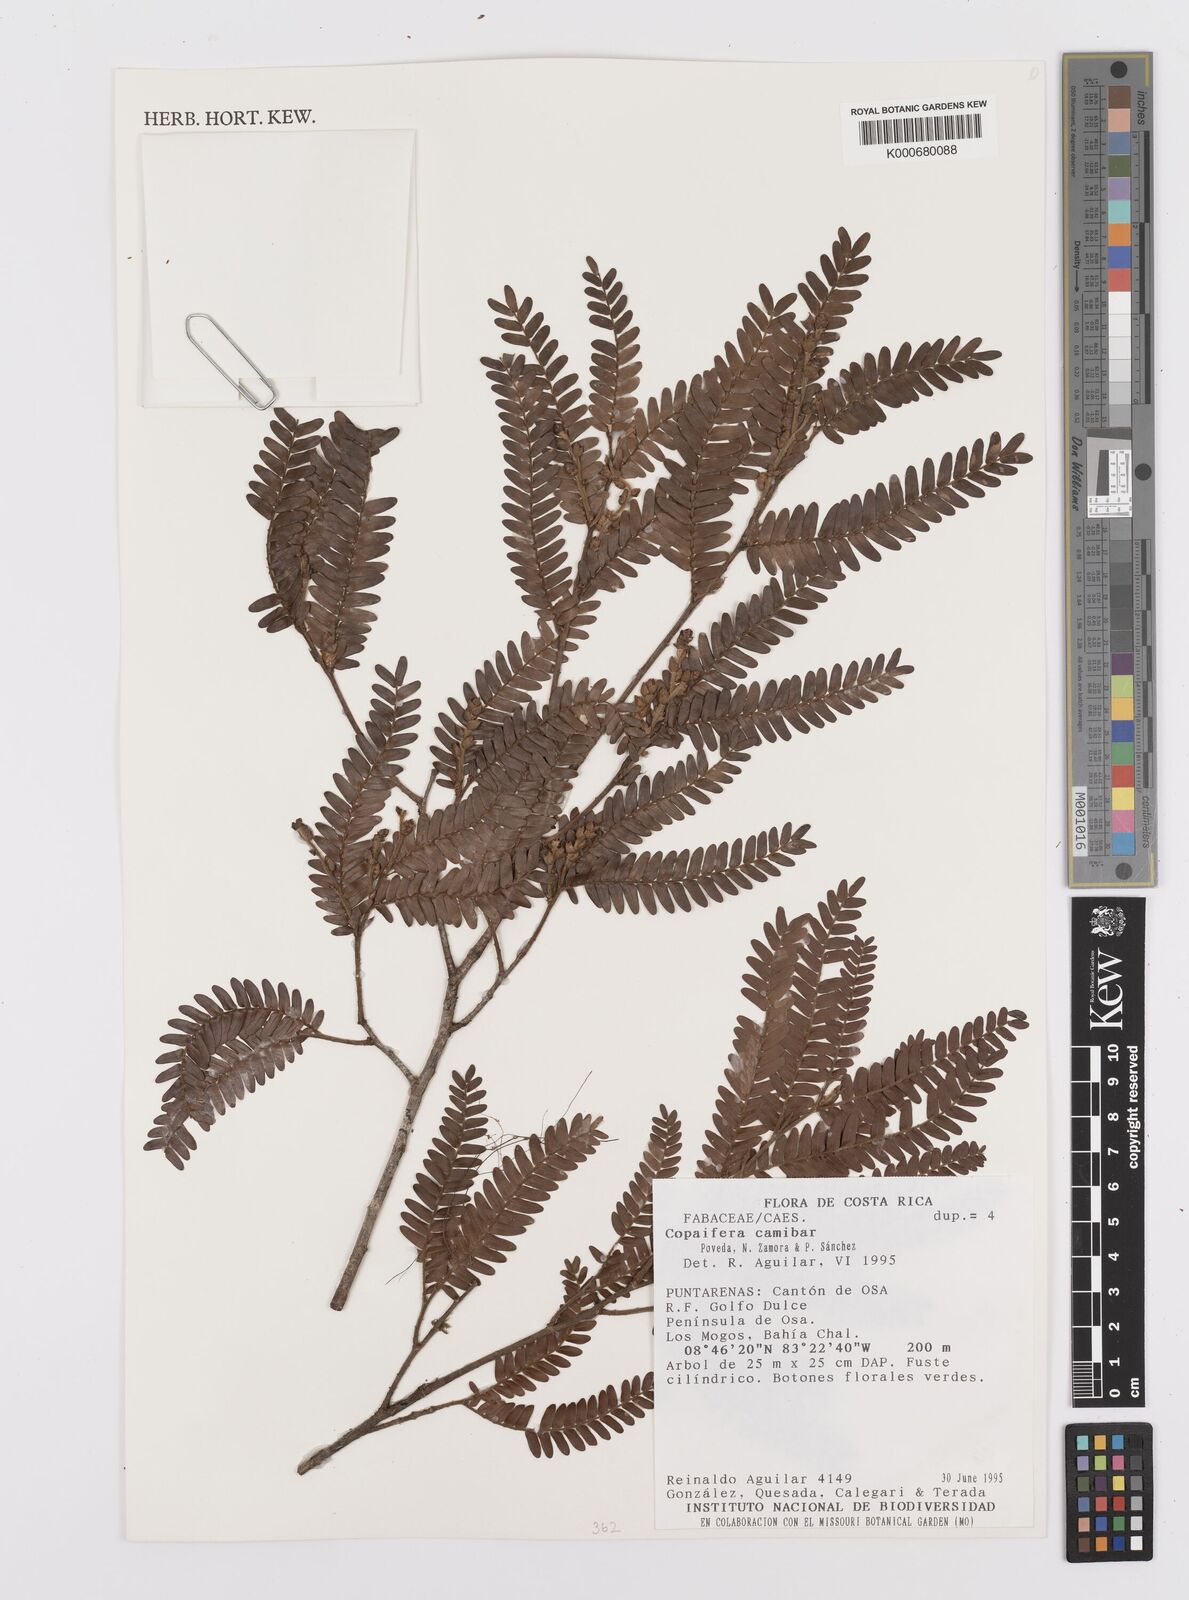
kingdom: Plantae
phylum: Tracheophyta
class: Magnoliopsida
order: Fabales
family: Fabaceae
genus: Copaifera
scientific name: Copaifera
